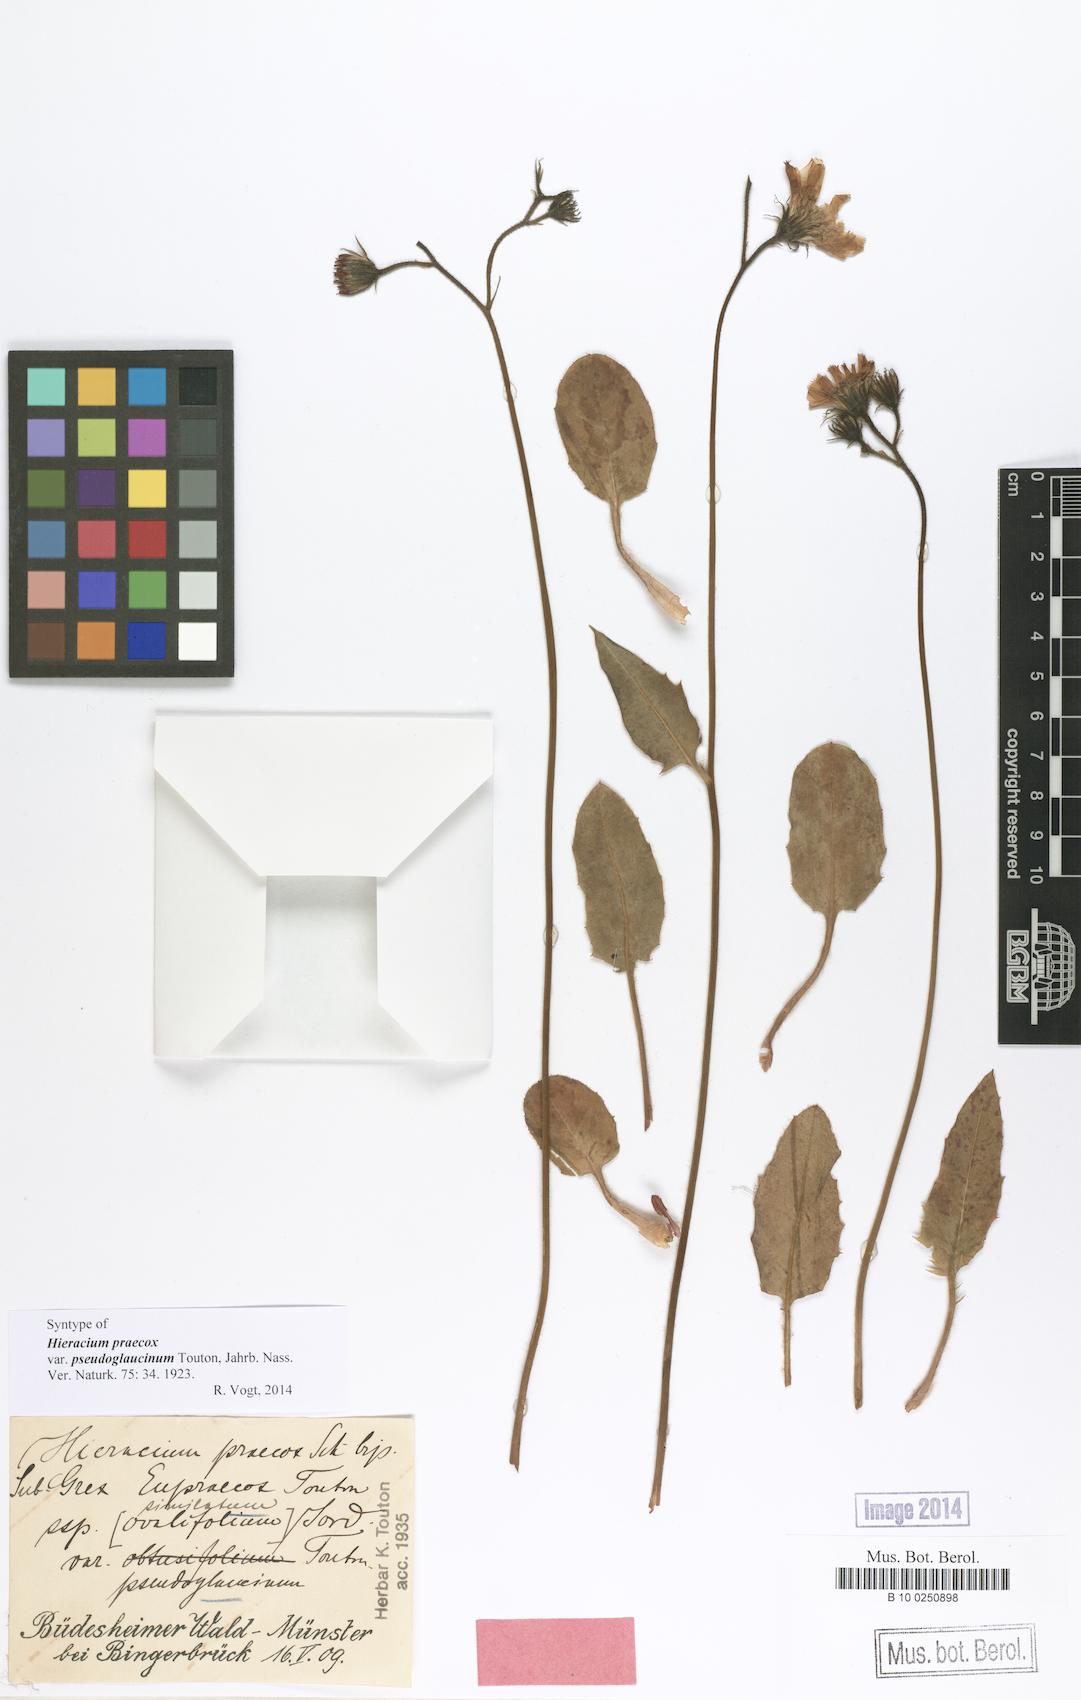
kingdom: Plantae
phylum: Tracheophyta
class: Magnoliopsida
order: Asterales
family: Asteraceae
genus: Hieracium
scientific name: Hieracium praecox
